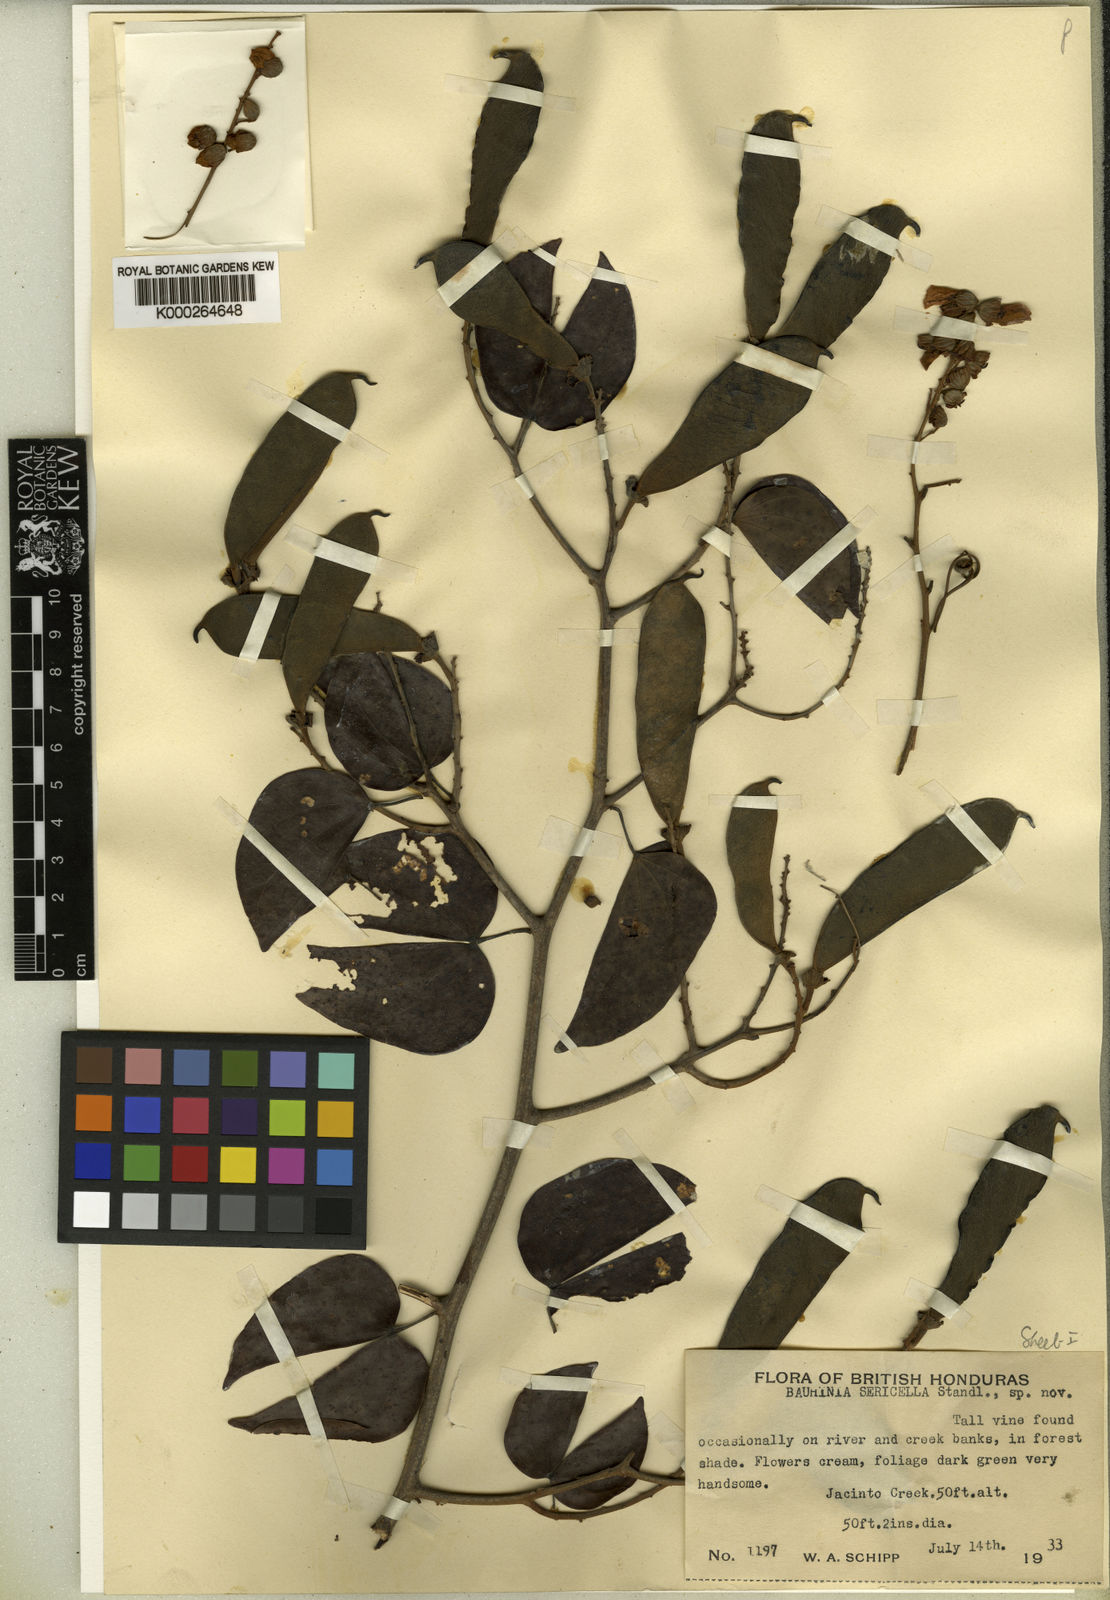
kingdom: Plantae
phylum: Tracheophyta
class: Magnoliopsida
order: Fabales
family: Fabaceae
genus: Schnella
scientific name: Schnella guianensis
